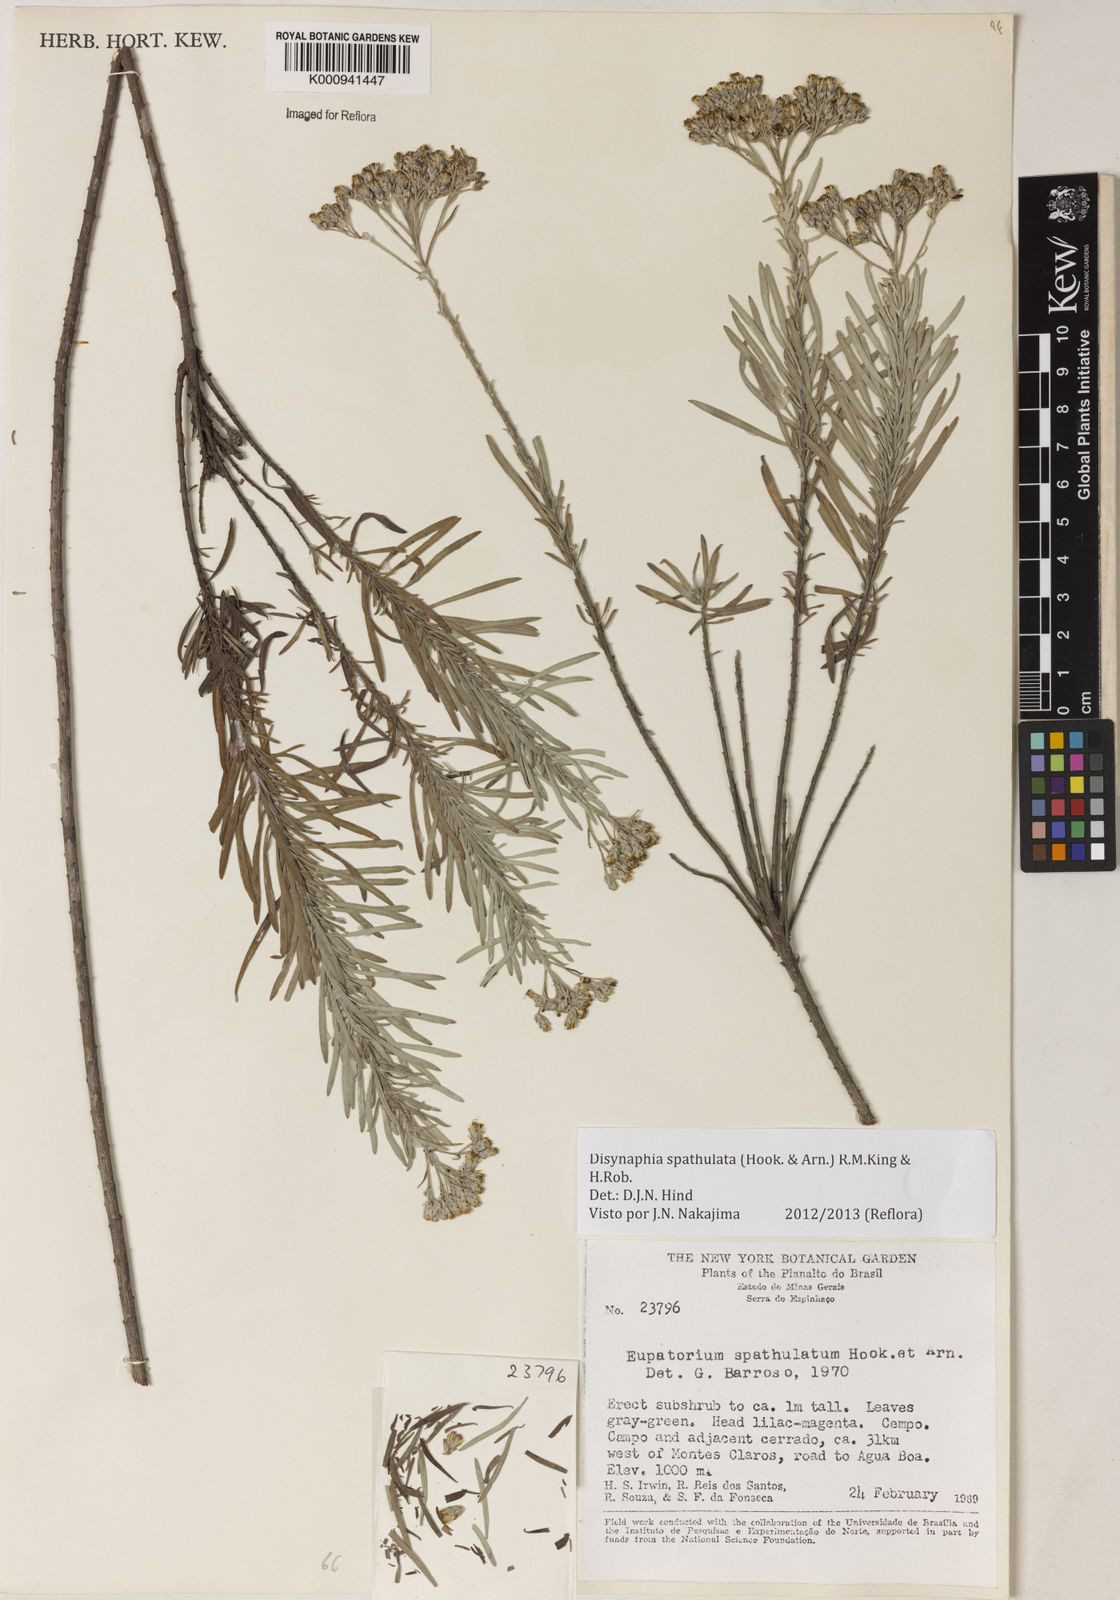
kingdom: Plantae
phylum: Tracheophyta
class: Magnoliopsida
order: Asterales
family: Asteraceae
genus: Disynaphia
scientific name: Disynaphia spathulata
